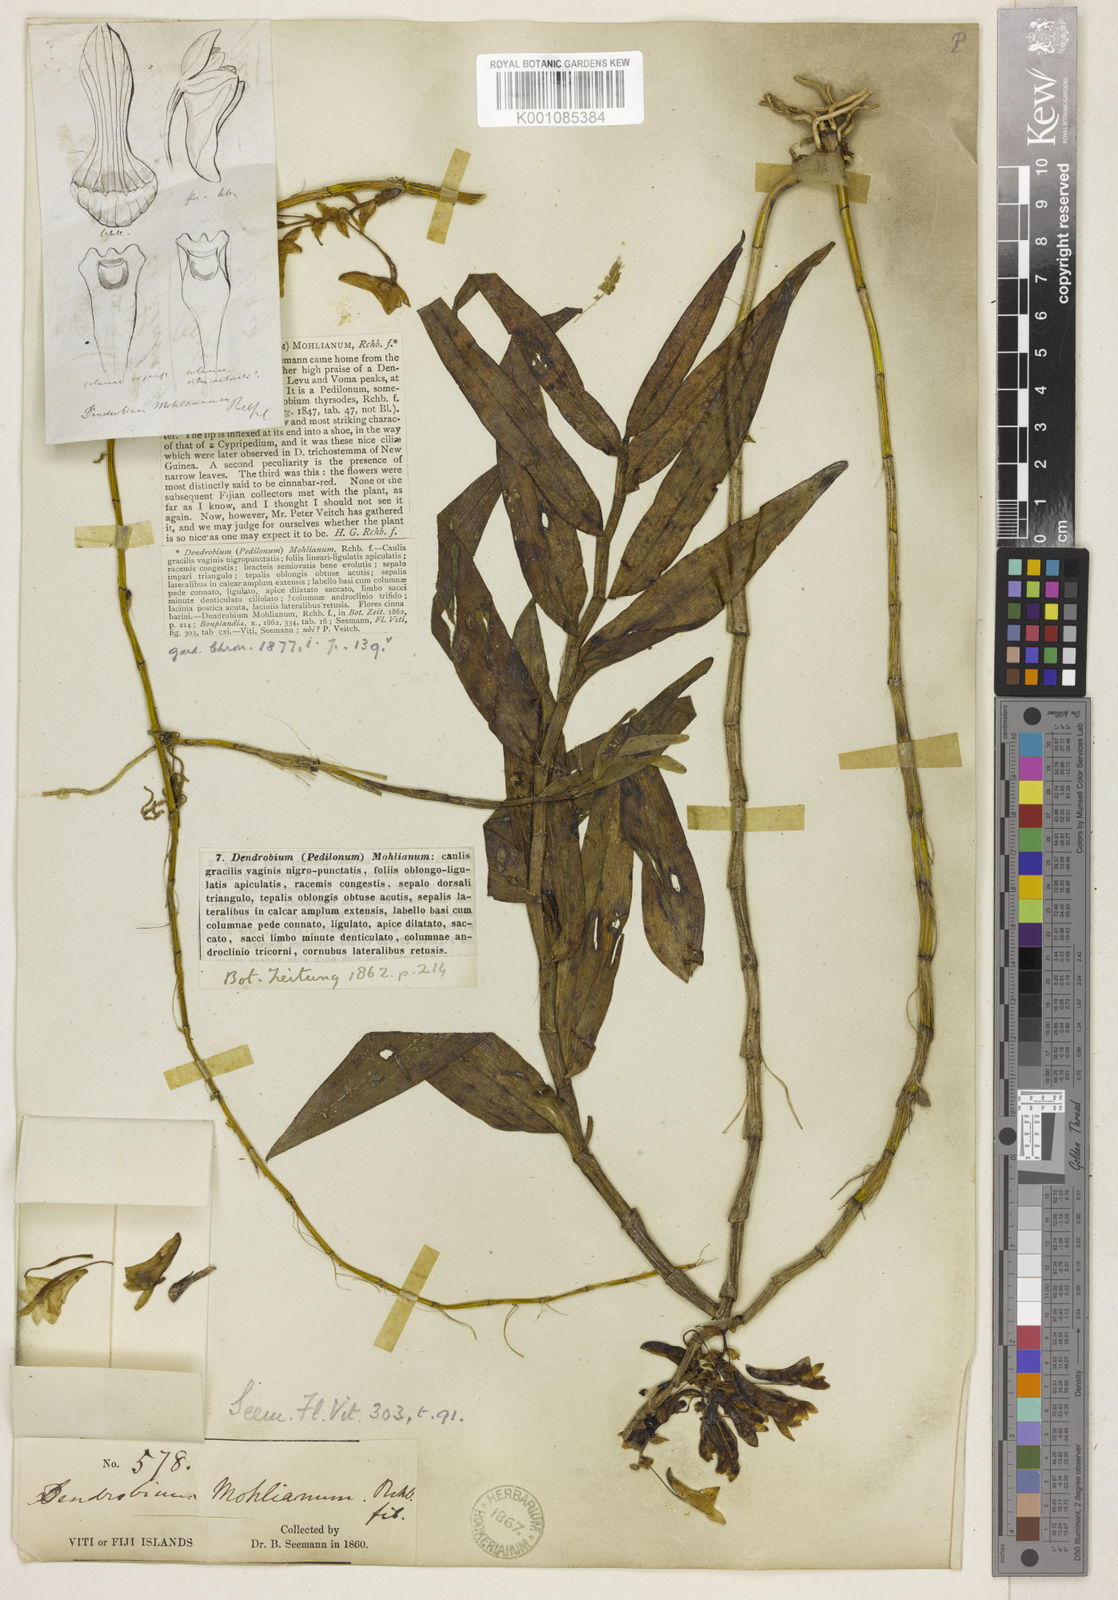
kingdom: Plantae
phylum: Tracheophyta
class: Liliopsida
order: Asparagales
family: Orchidaceae
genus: Dendrobium
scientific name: Dendrobium
